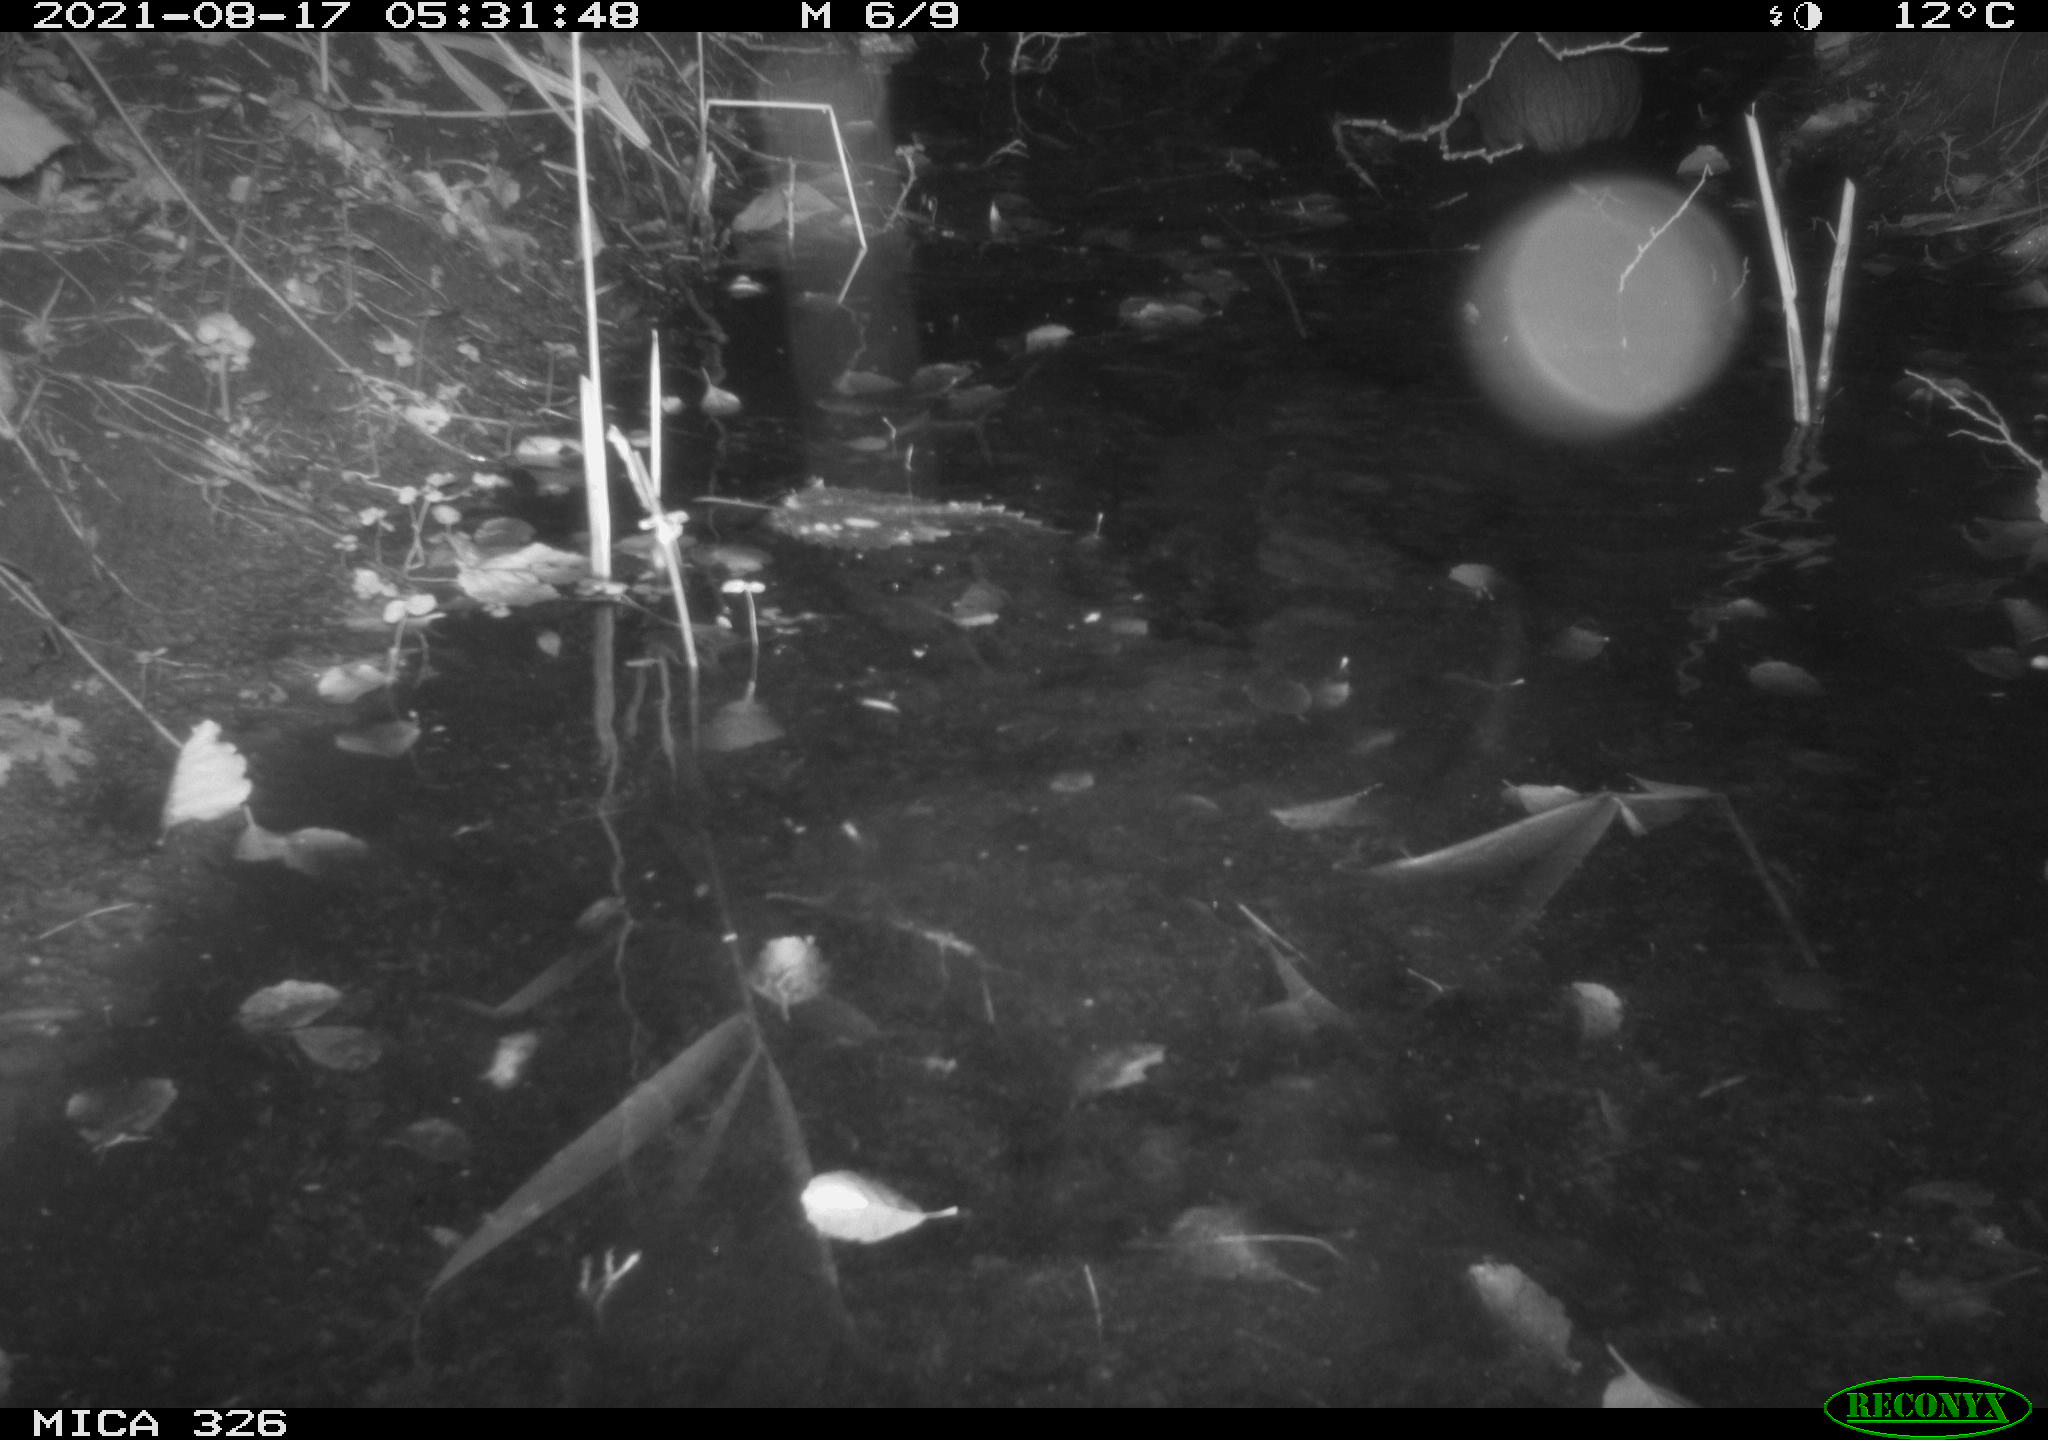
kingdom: Animalia
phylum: Chordata
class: Mammalia
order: Rodentia
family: Myocastoridae
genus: Myocastor
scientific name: Myocastor coypus
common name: Coypu
